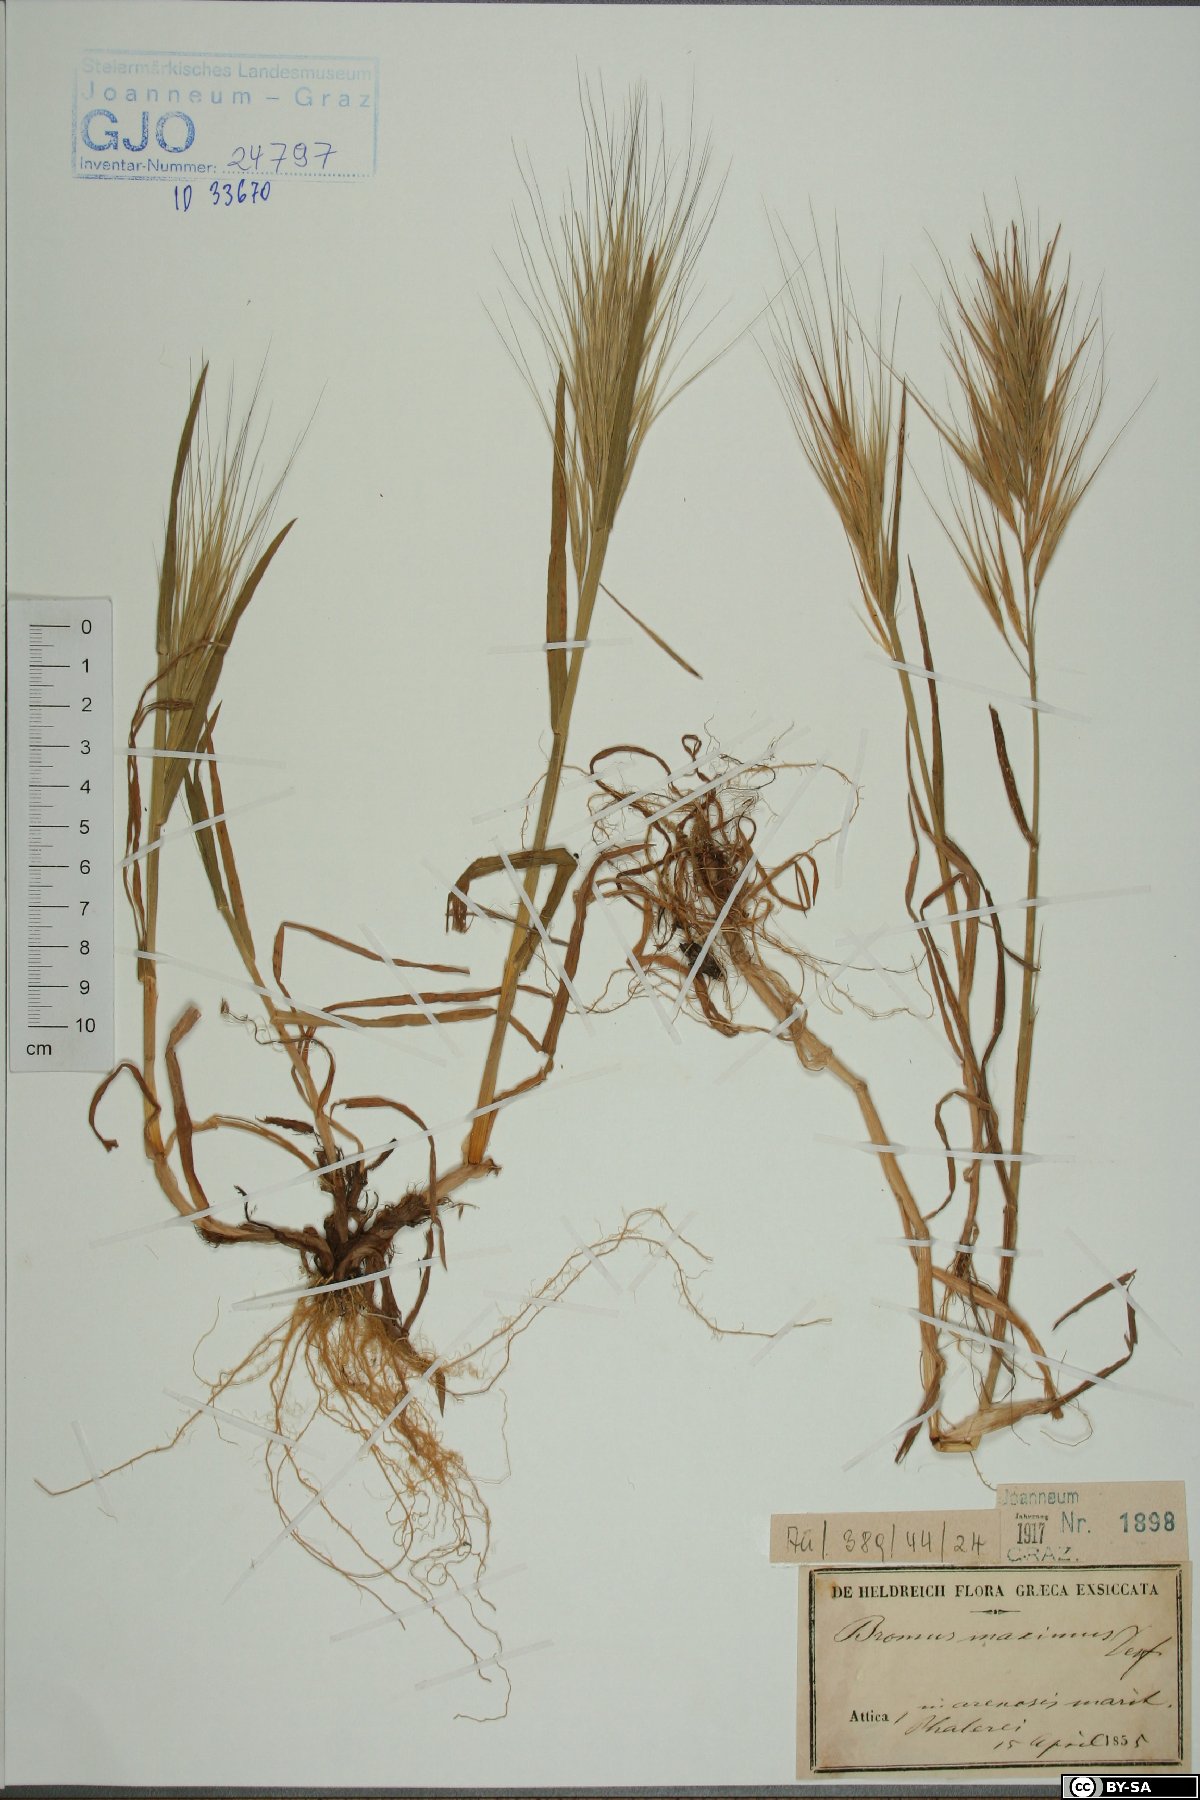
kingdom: Plantae
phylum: Tracheophyta
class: Liliopsida
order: Poales
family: Poaceae
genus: Bromus
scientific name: Bromus rigidus
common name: Ripgut brome
